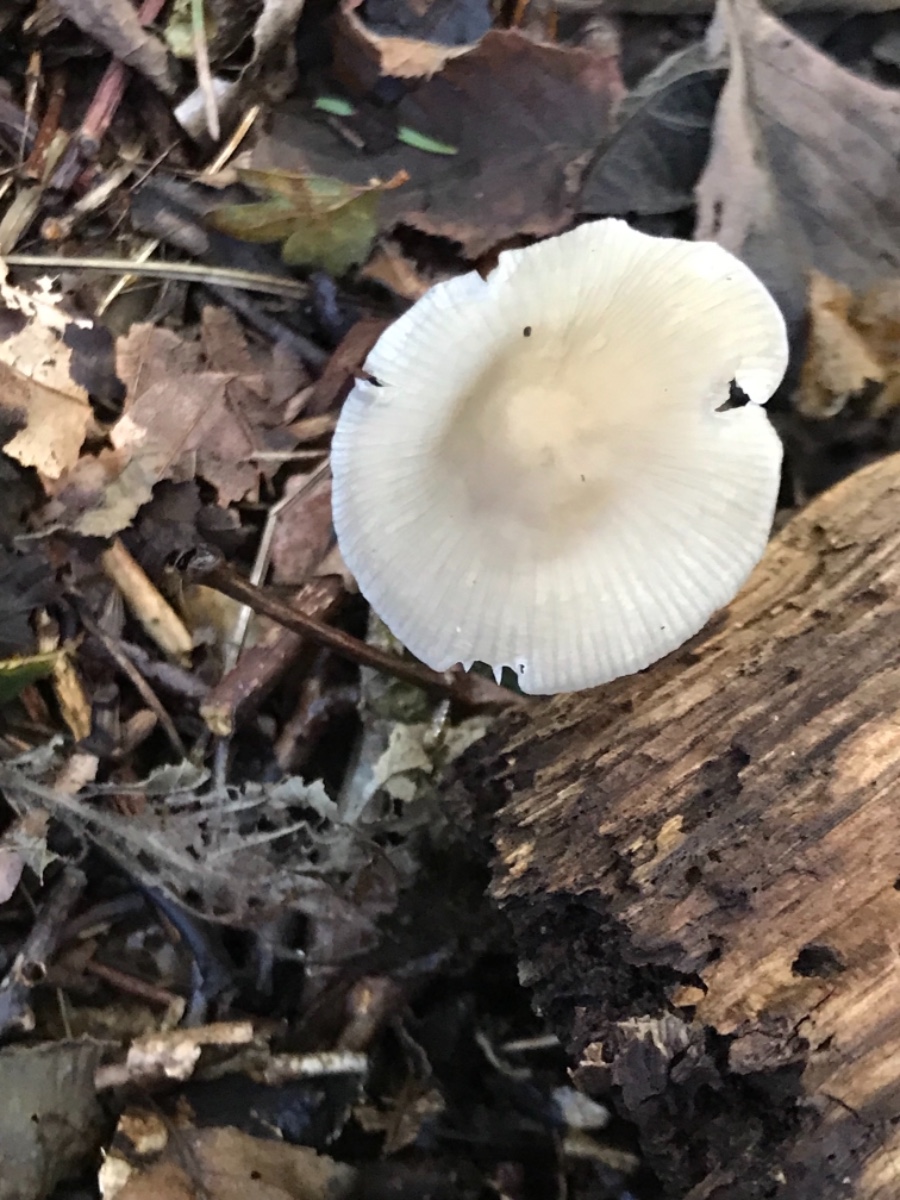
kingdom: Fungi
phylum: Basidiomycota
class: Agaricomycetes
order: Agaricales
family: Mycenaceae
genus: Mycena
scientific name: Mycena galericulata
